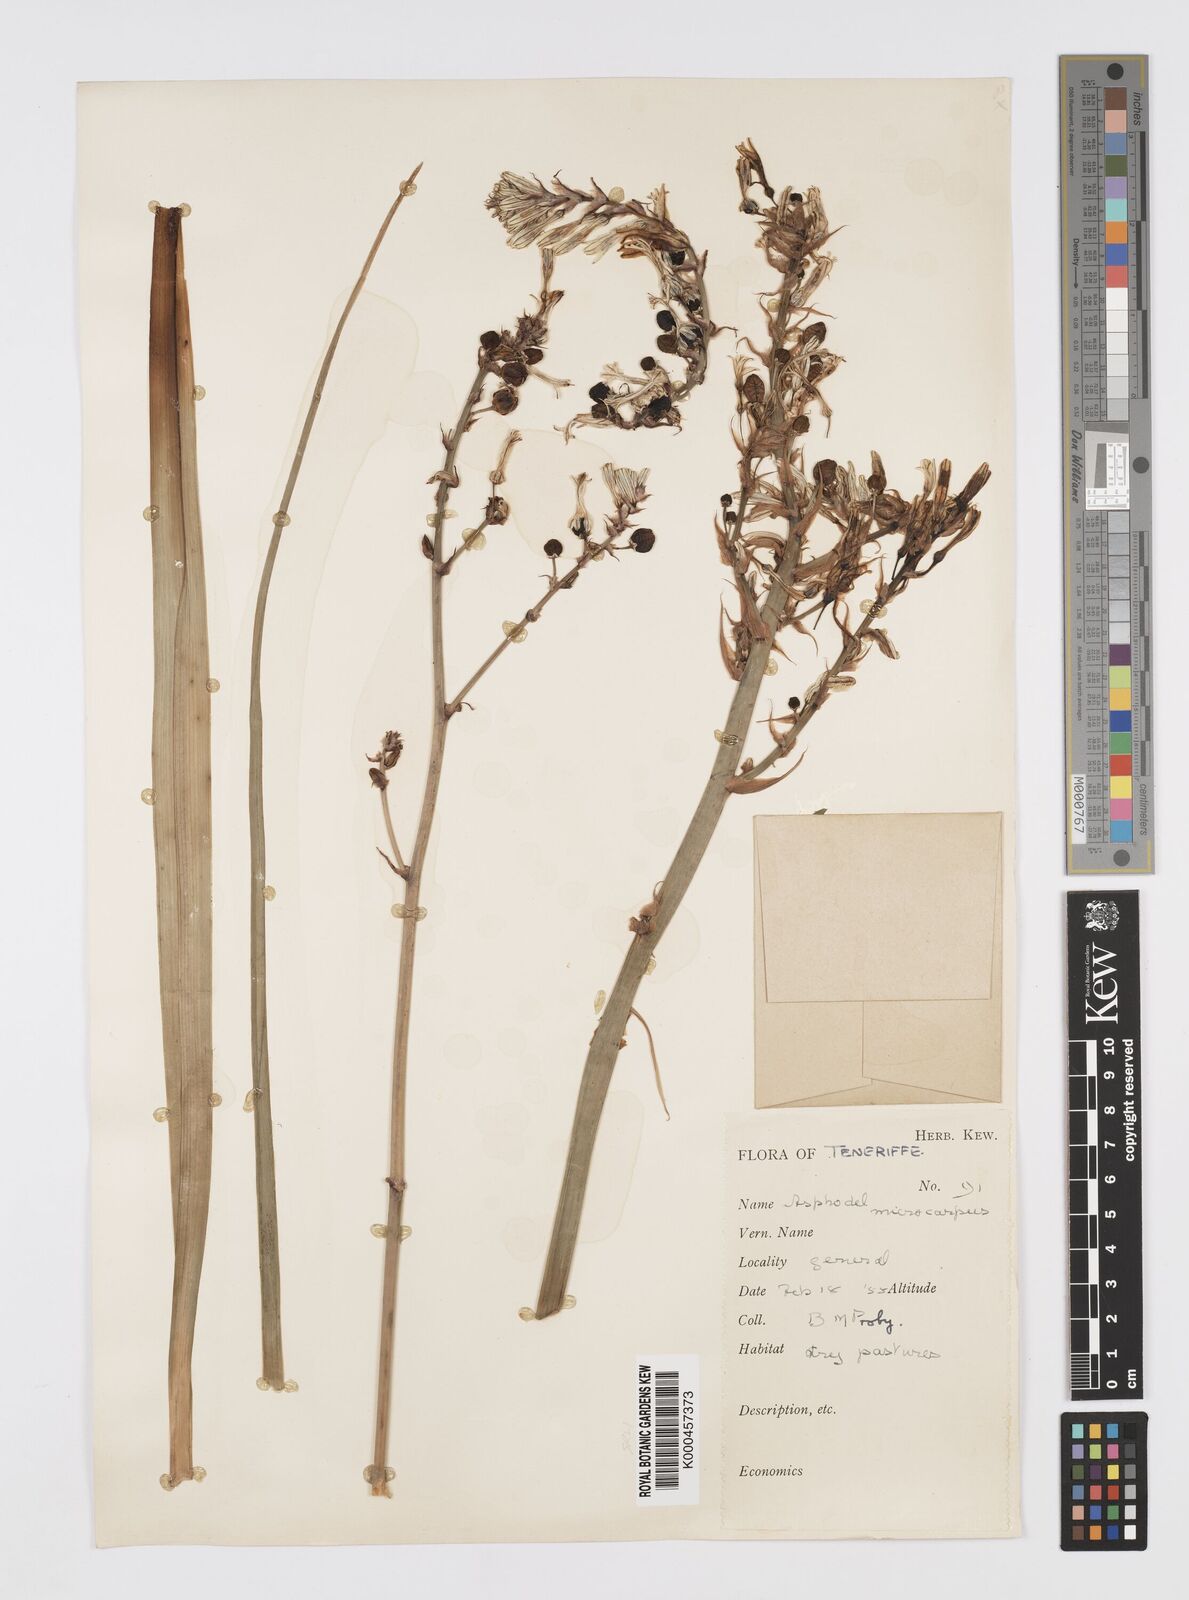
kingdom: Plantae
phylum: Tracheophyta
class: Liliopsida
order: Asparagales
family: Asphodelaceae
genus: Asphodelus
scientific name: Asphodelus aestivus
